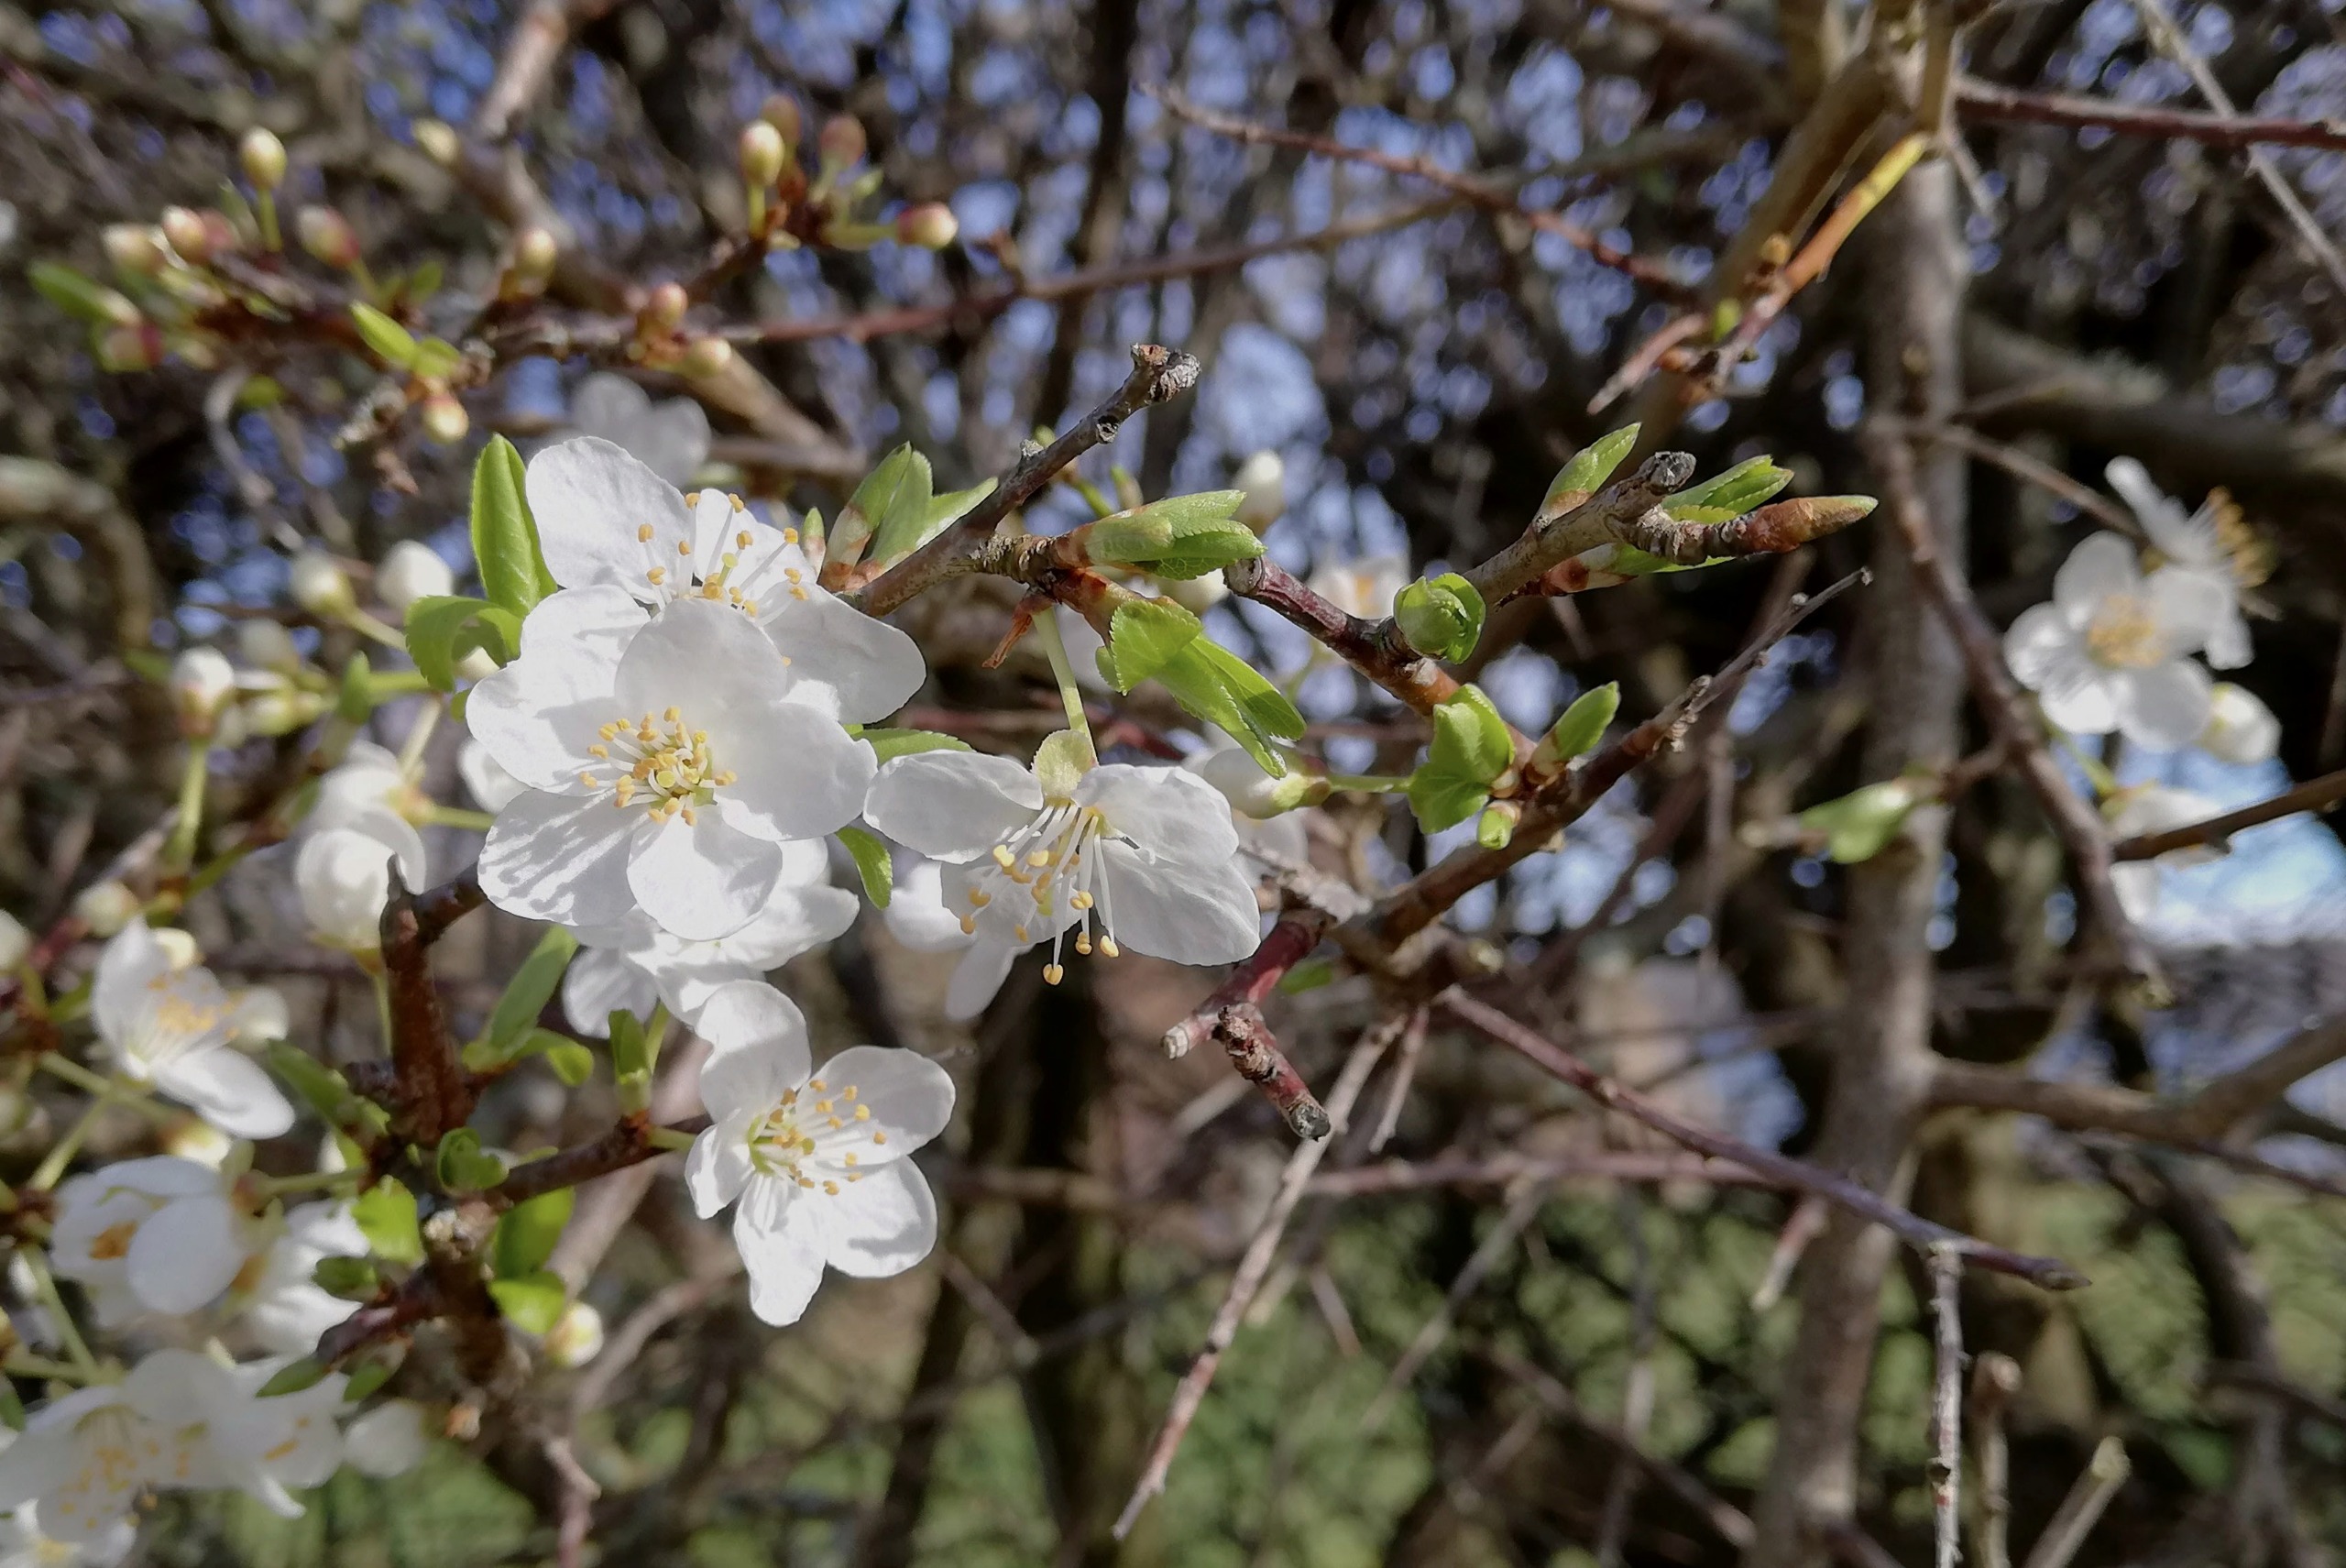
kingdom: Plantae
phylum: Tracheophyta
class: Magnoliopsida
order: Rosales
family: Rosaceae
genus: Prunus
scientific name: Prunus cerasifera
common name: Mirabel
